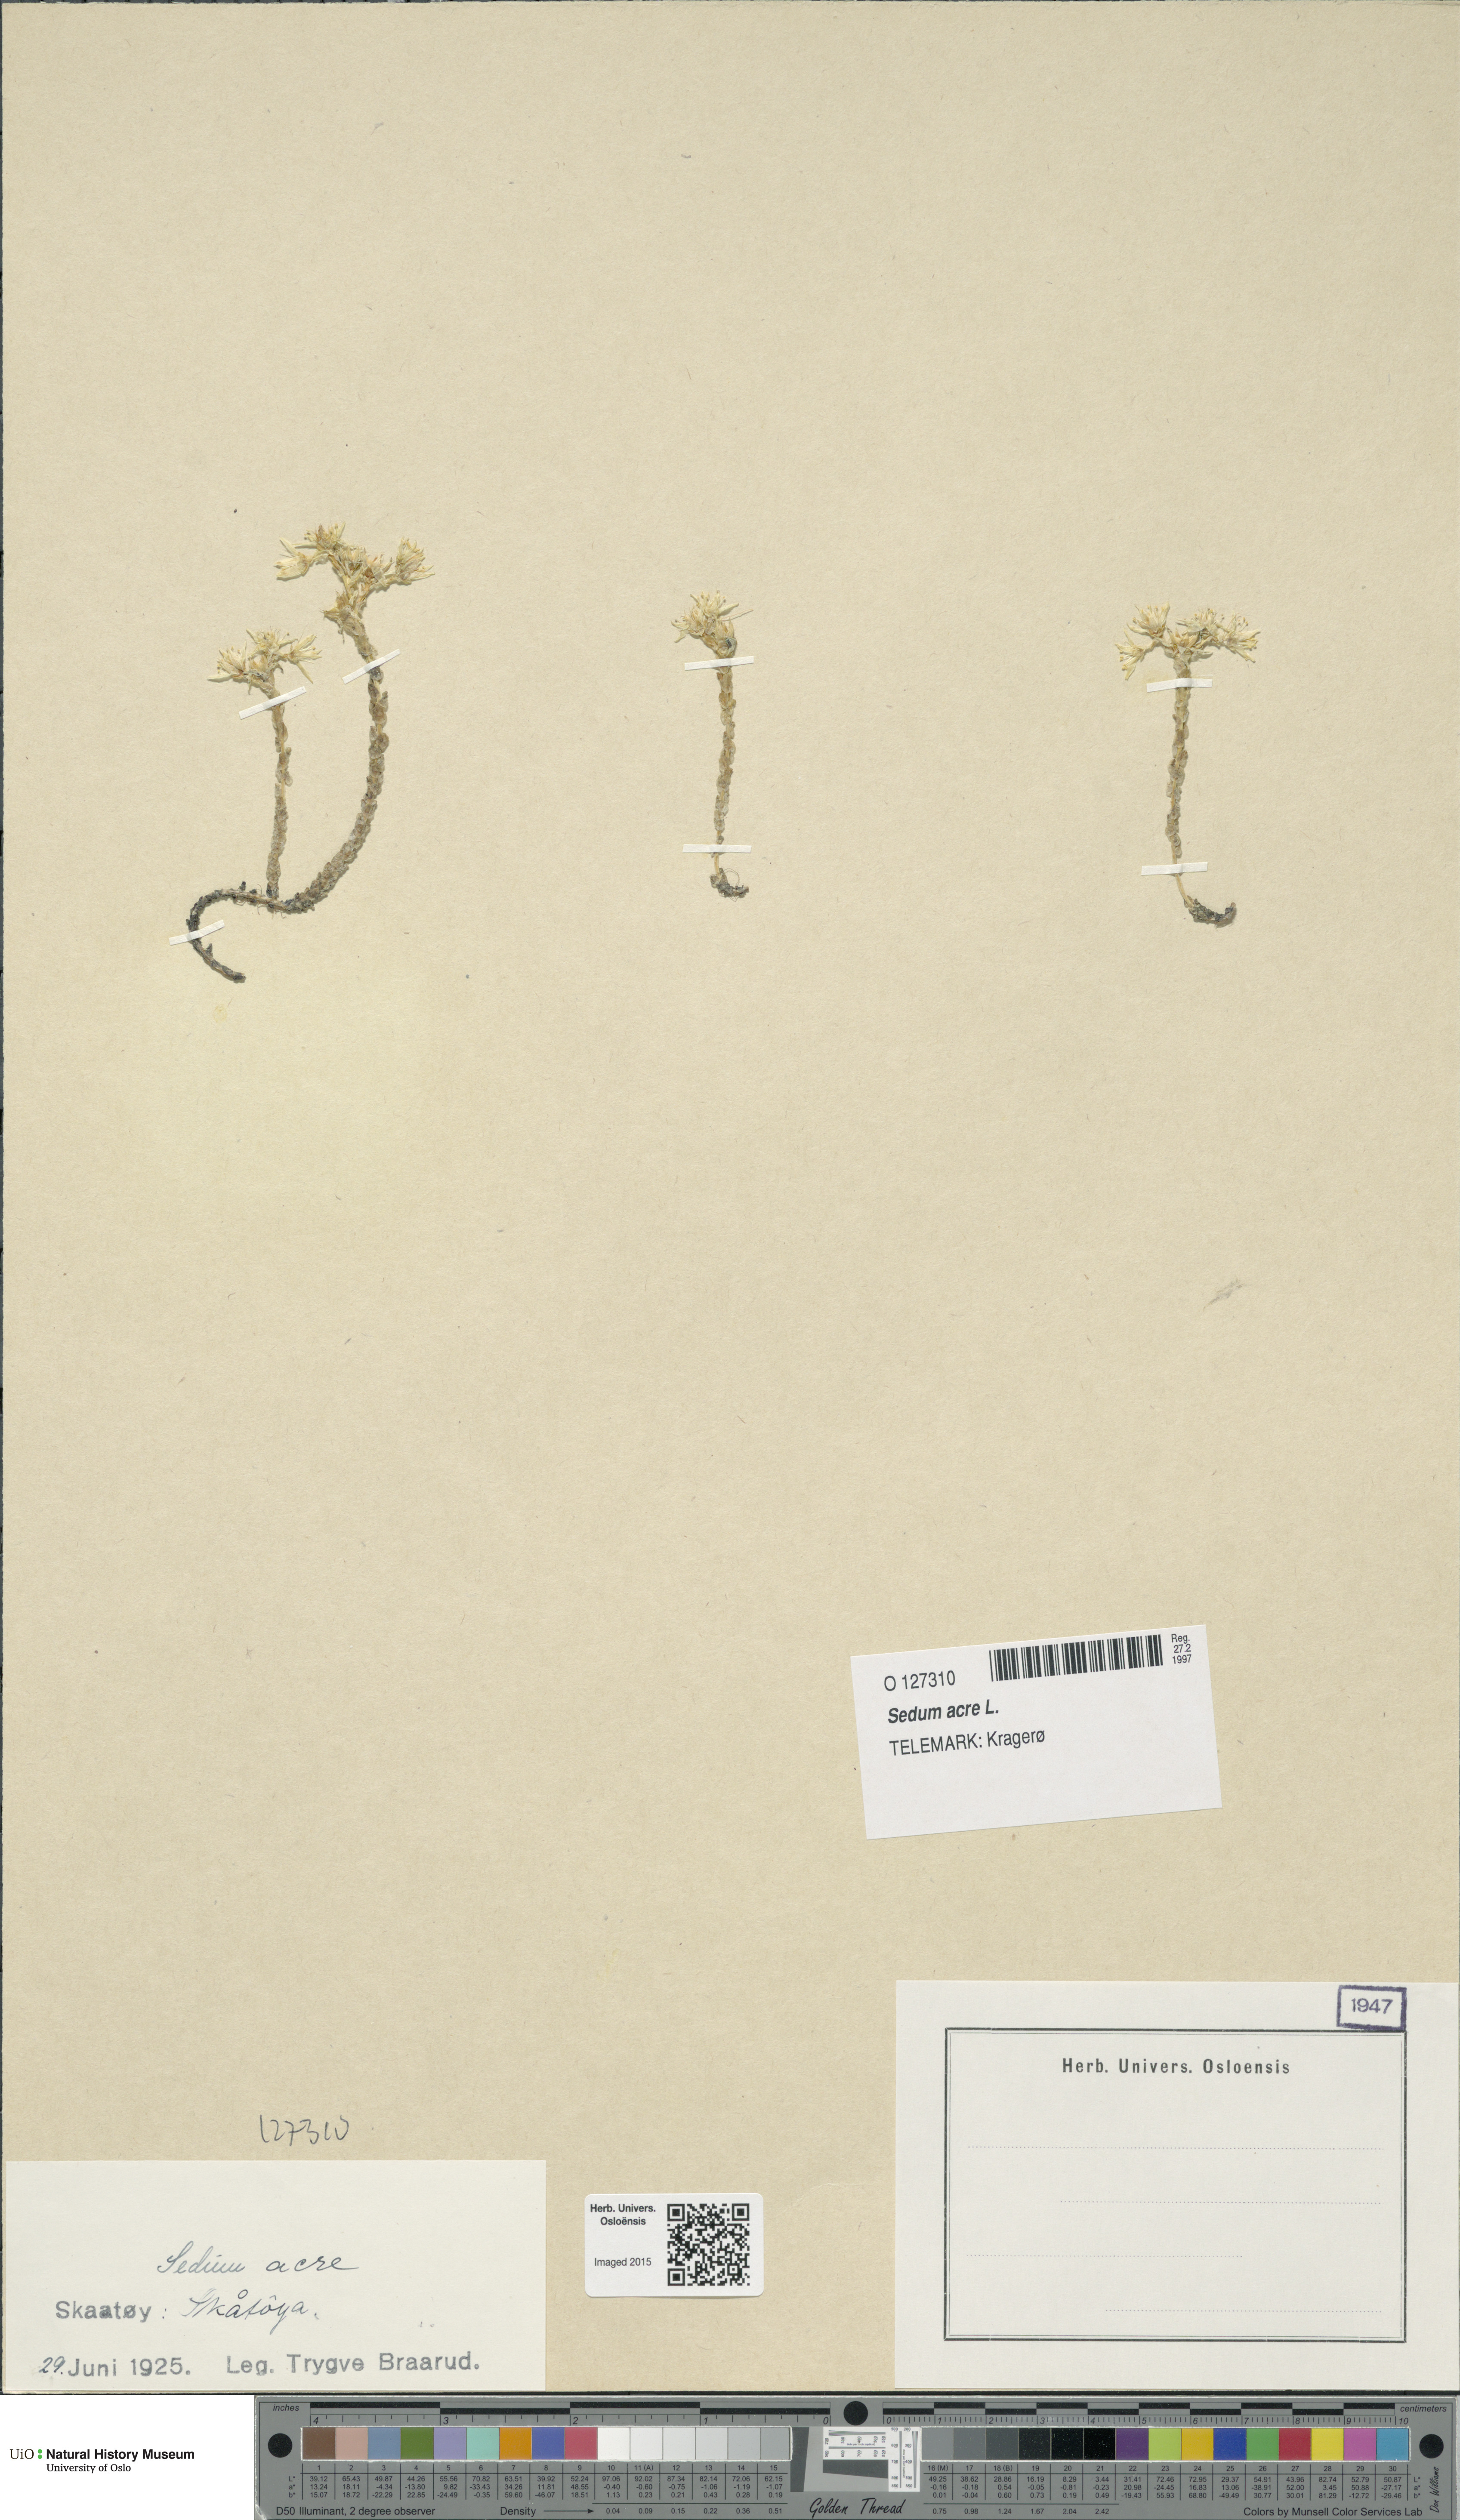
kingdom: Plantae
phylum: Tracheophyta
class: Magnoliopsida
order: Saxifragales
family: Crassulaceae
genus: Sedum
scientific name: Sedum acre
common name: Biting stonecrop
